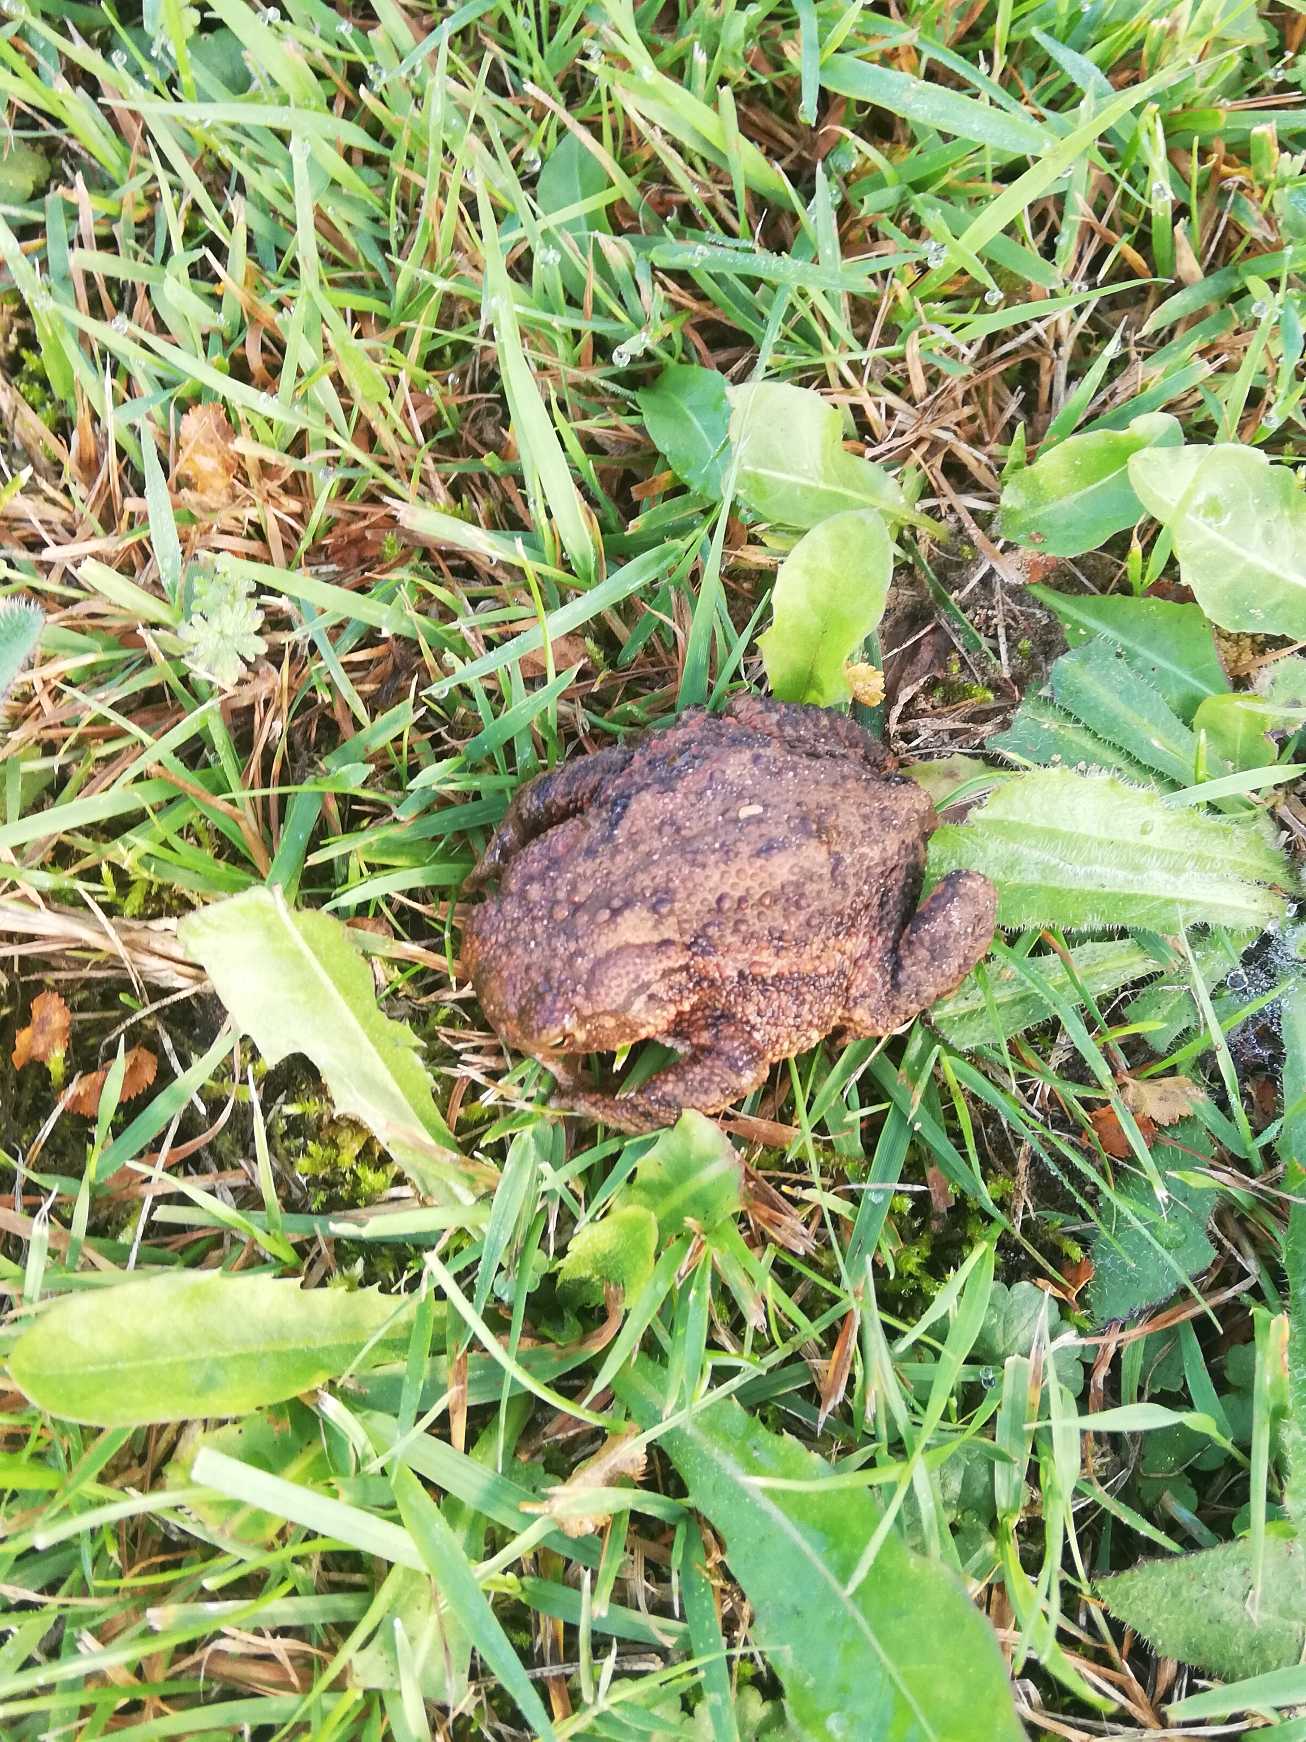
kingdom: Animalia
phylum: Chordata
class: Amphibia
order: Anura
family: Bufonidae
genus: Bufo
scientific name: Bufo bufo
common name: Skrubtudse
